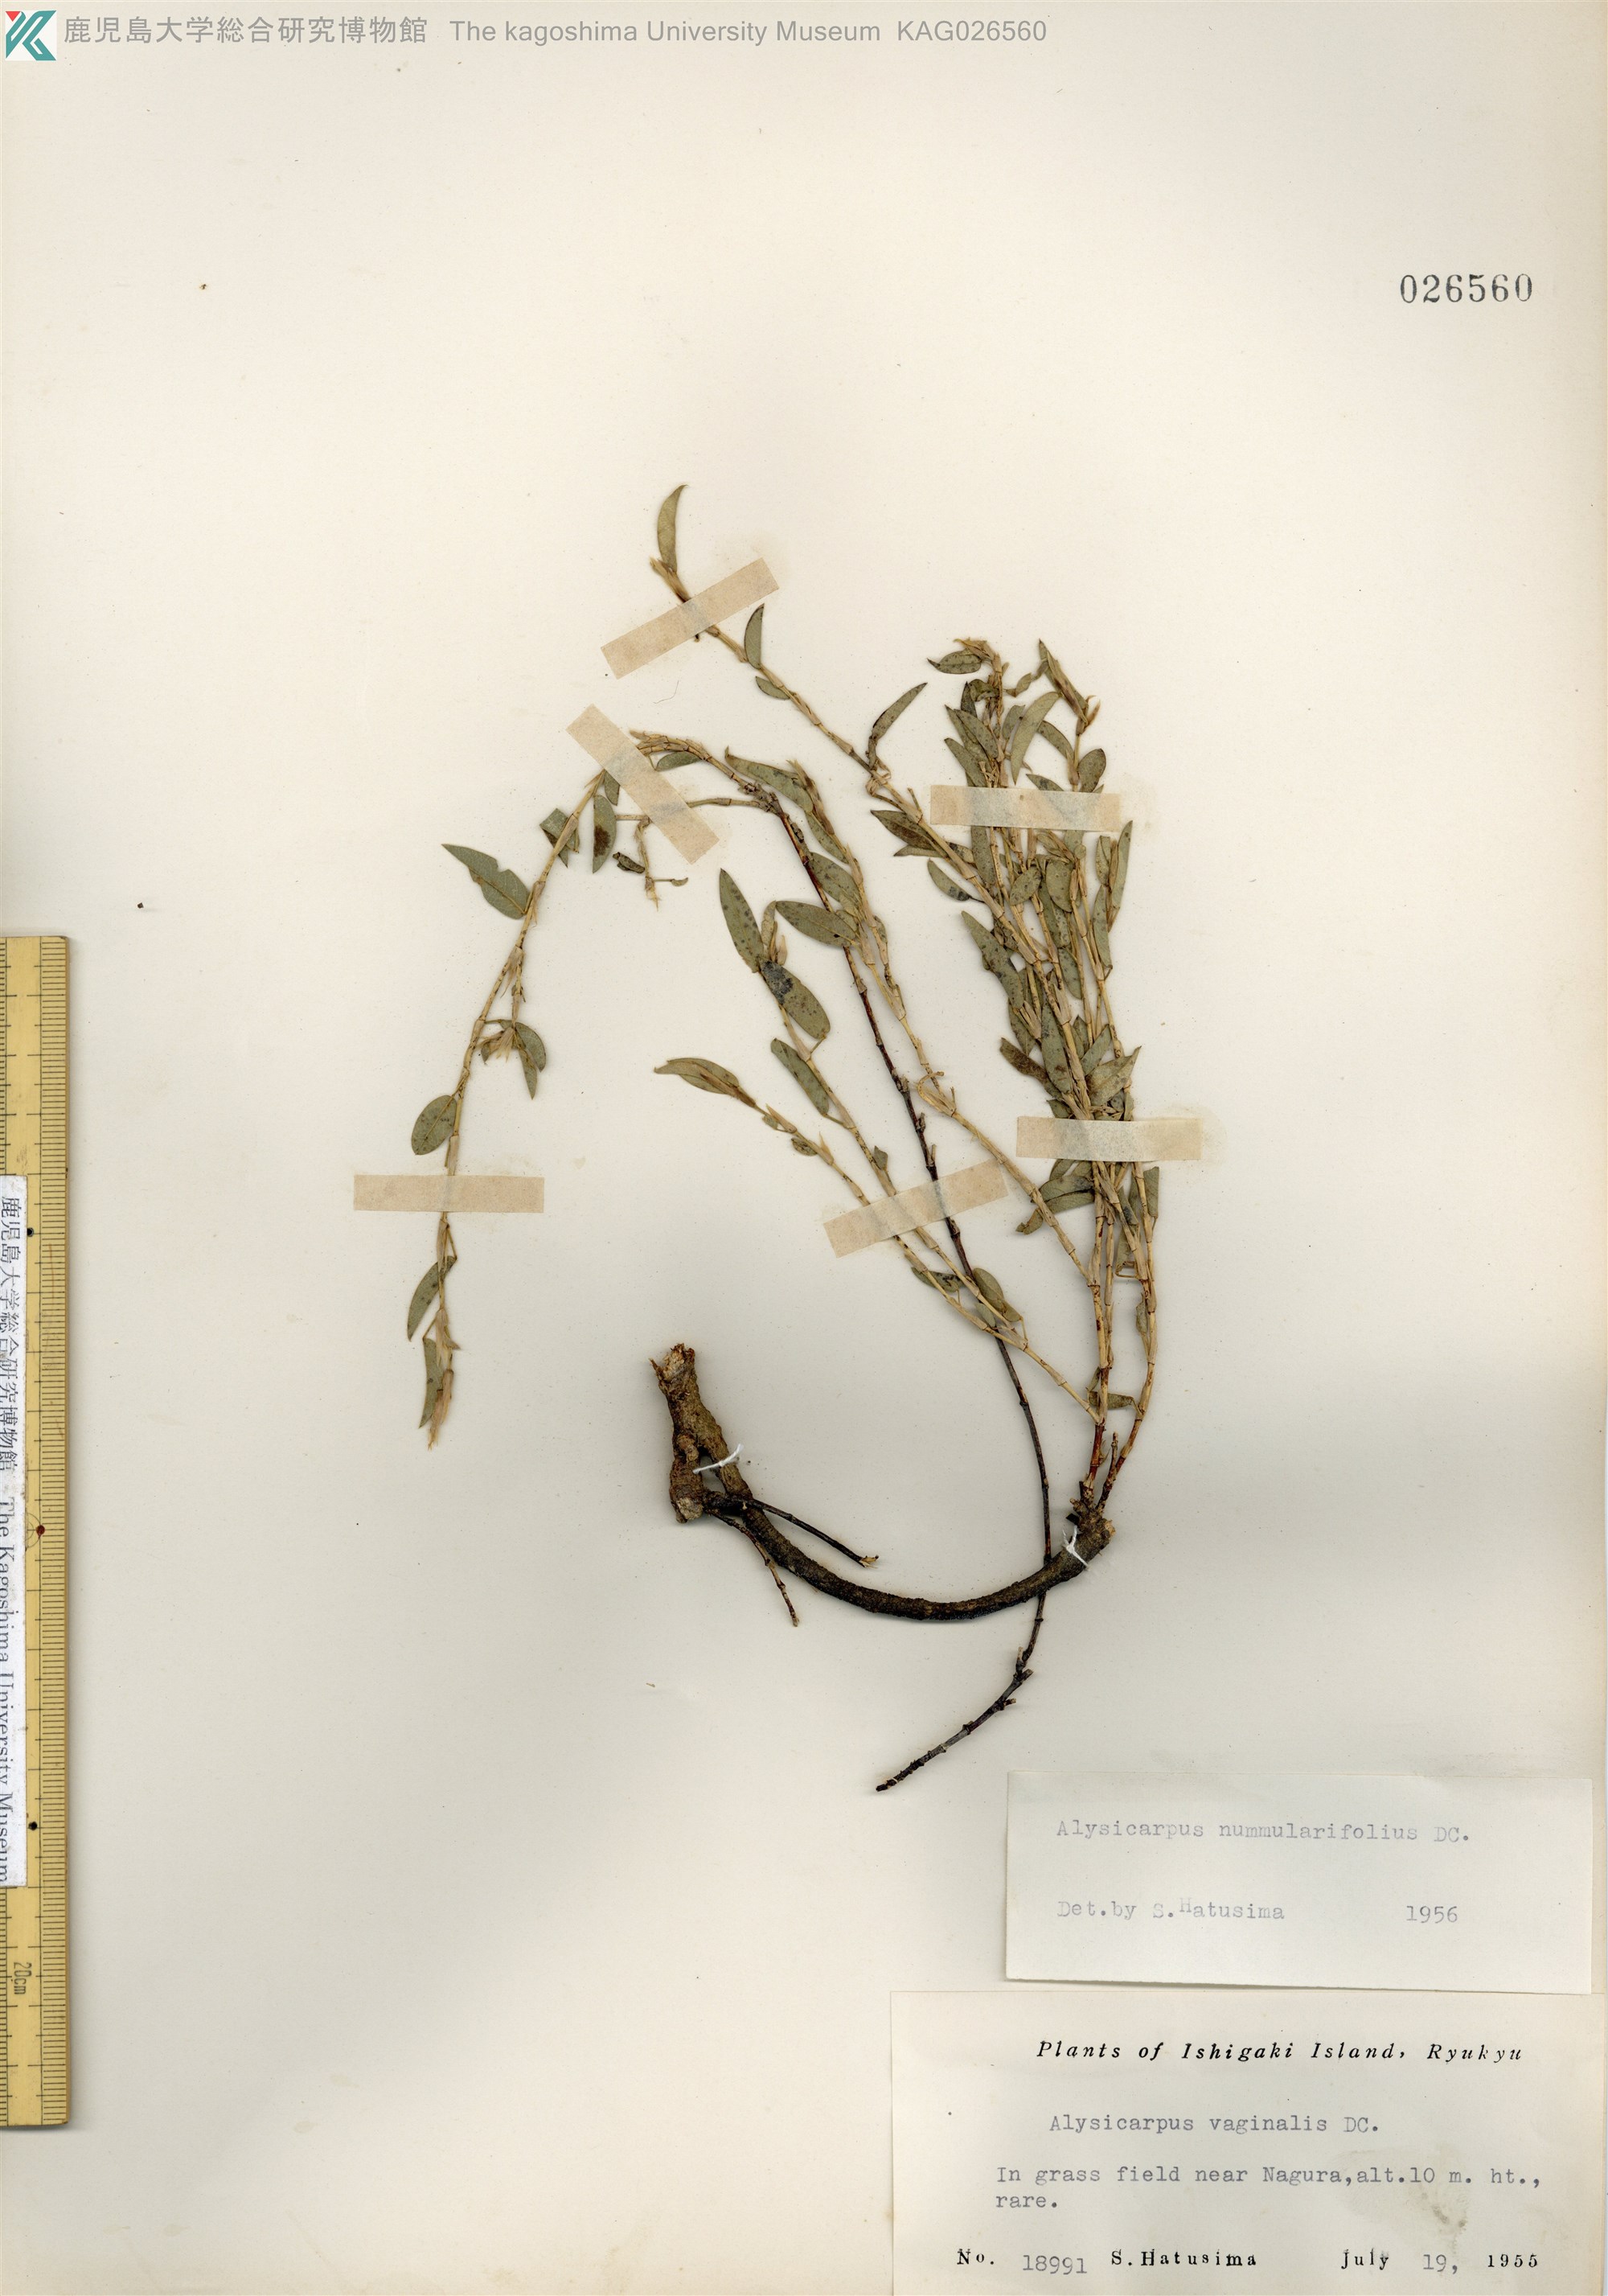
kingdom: Plantae
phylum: Tracheophyta
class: Magnoliopsida
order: Fabales
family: Fabaceae
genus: Alysicarpus
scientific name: Alysicarpus vaginalis
